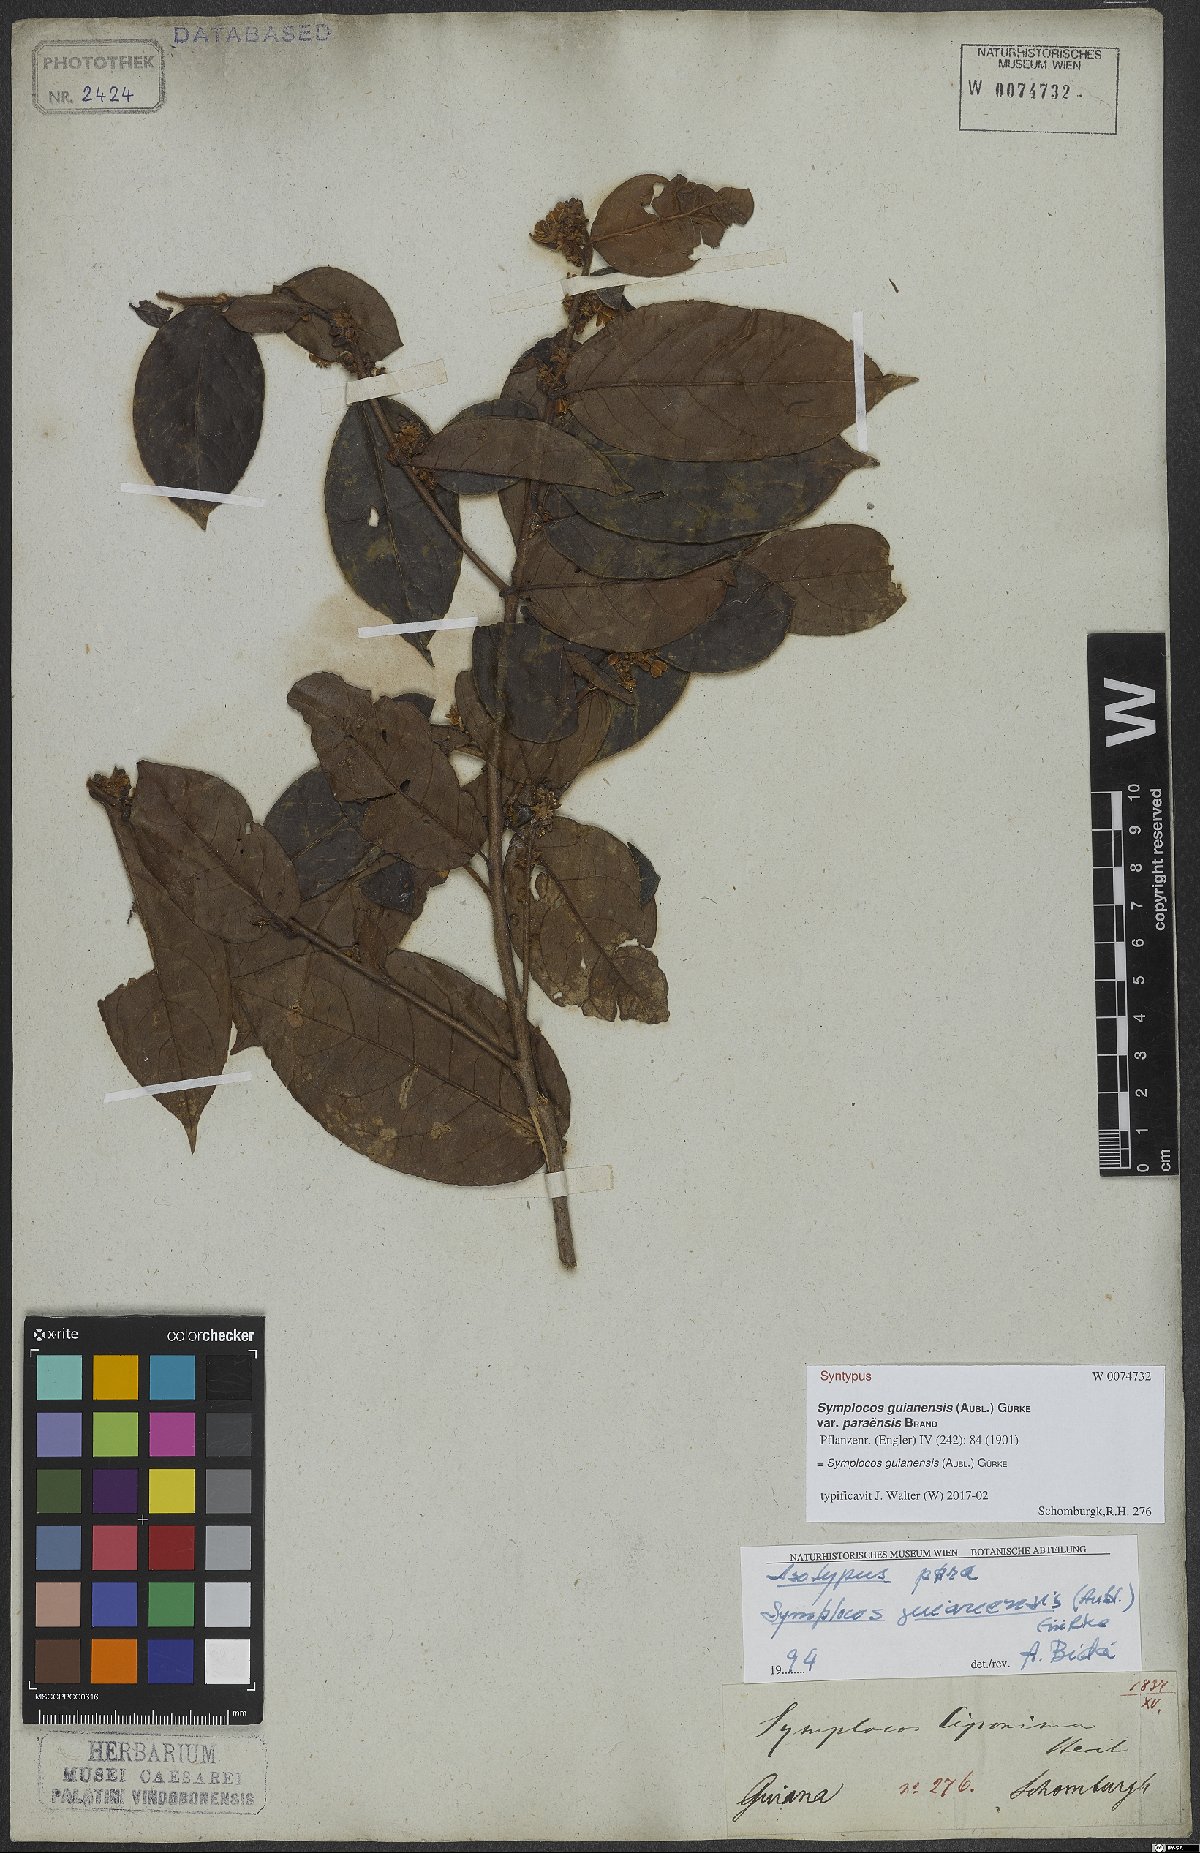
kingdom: Plantae
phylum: Tracheophyta
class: Magnoliopsida
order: Ericales
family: Symplocaceae
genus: Symplocos
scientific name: Symplocos guianensis
